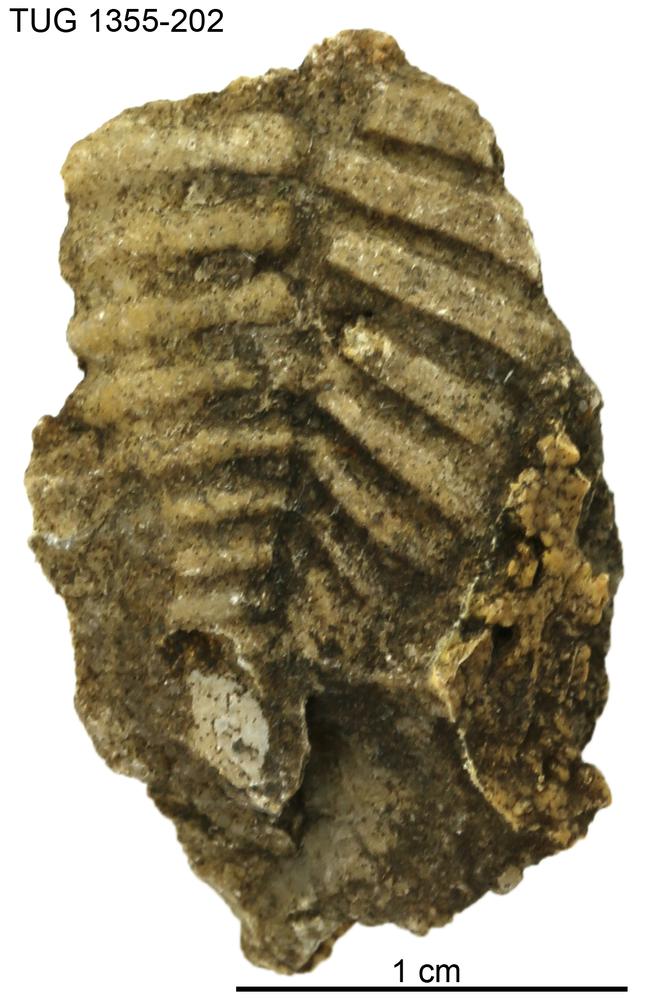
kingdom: Animalia
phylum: Arthropoda
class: Trilobita
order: Phacopida
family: Pterygometopidae
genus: Chasmops
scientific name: Chasmops macrourus
